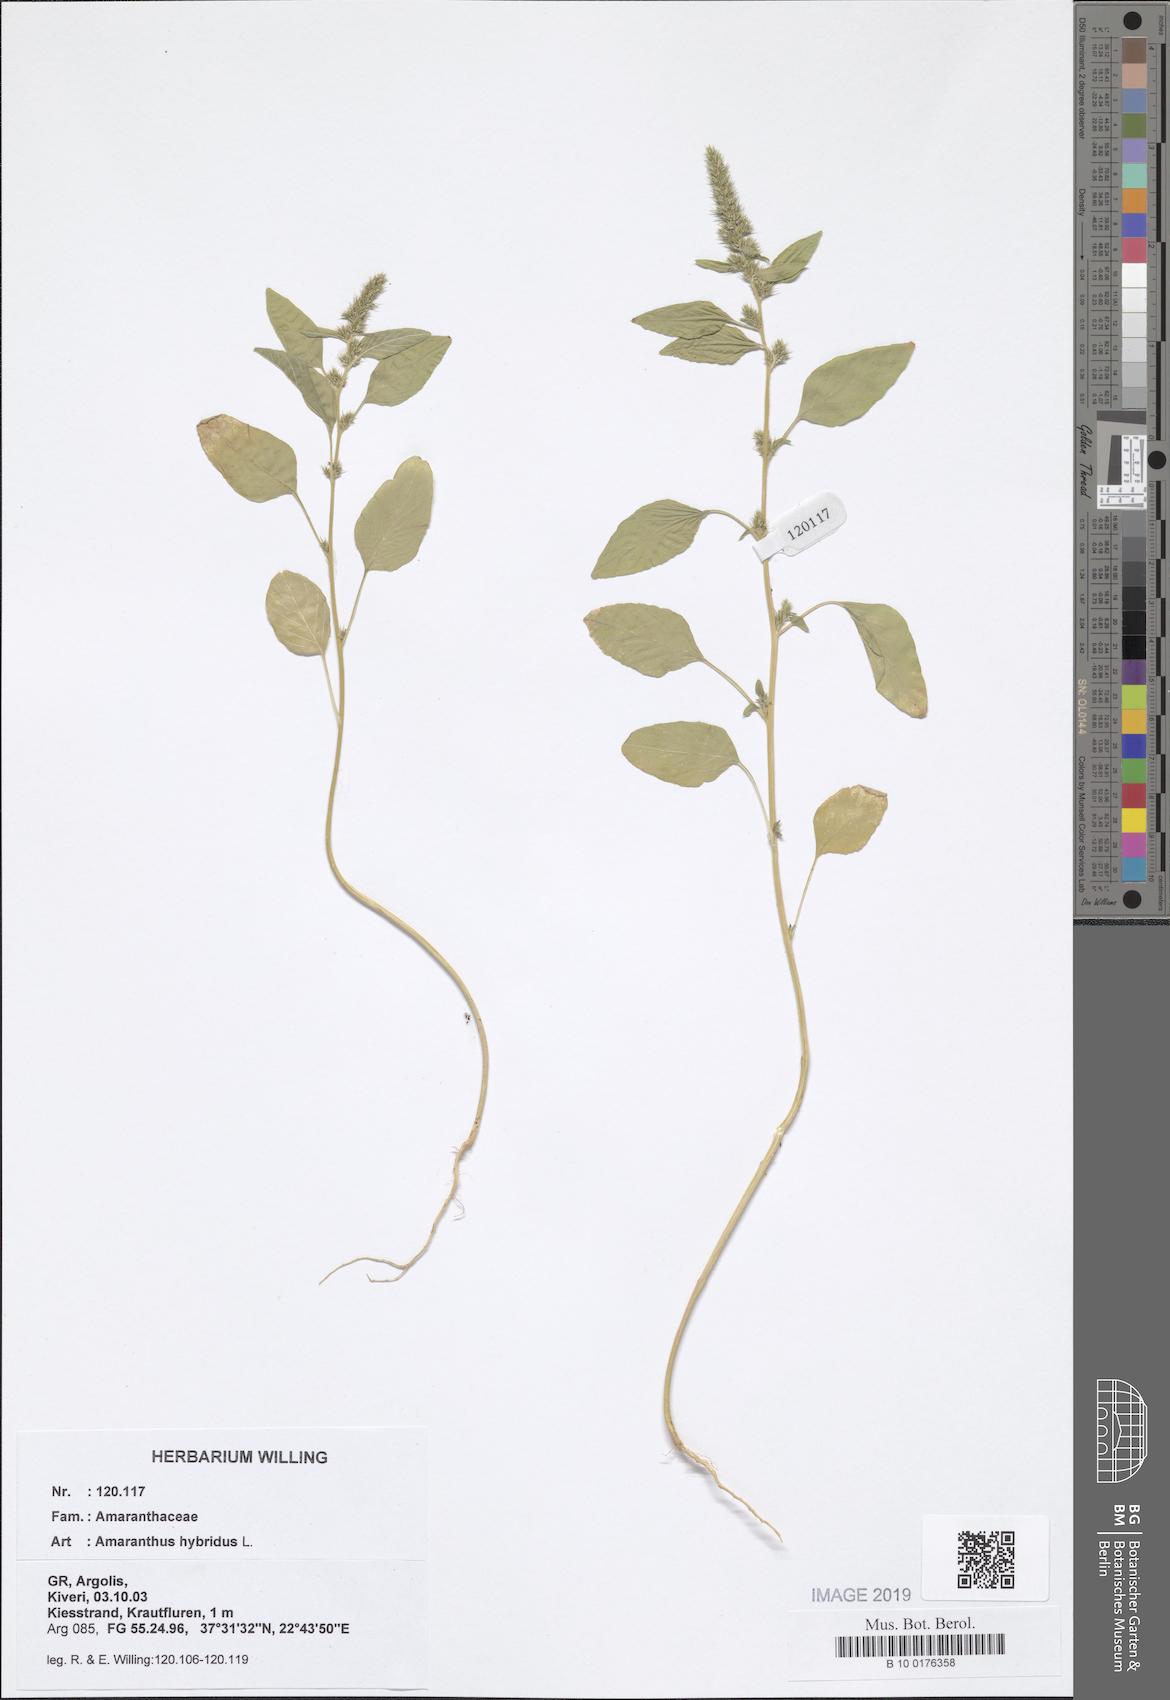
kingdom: Plantae
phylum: Tracheophyta
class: Magnoliopsida
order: Caryophyllales
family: Amaranthaceae
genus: Amaranthus
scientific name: Amaranthus hybridus
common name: Green amaranth
